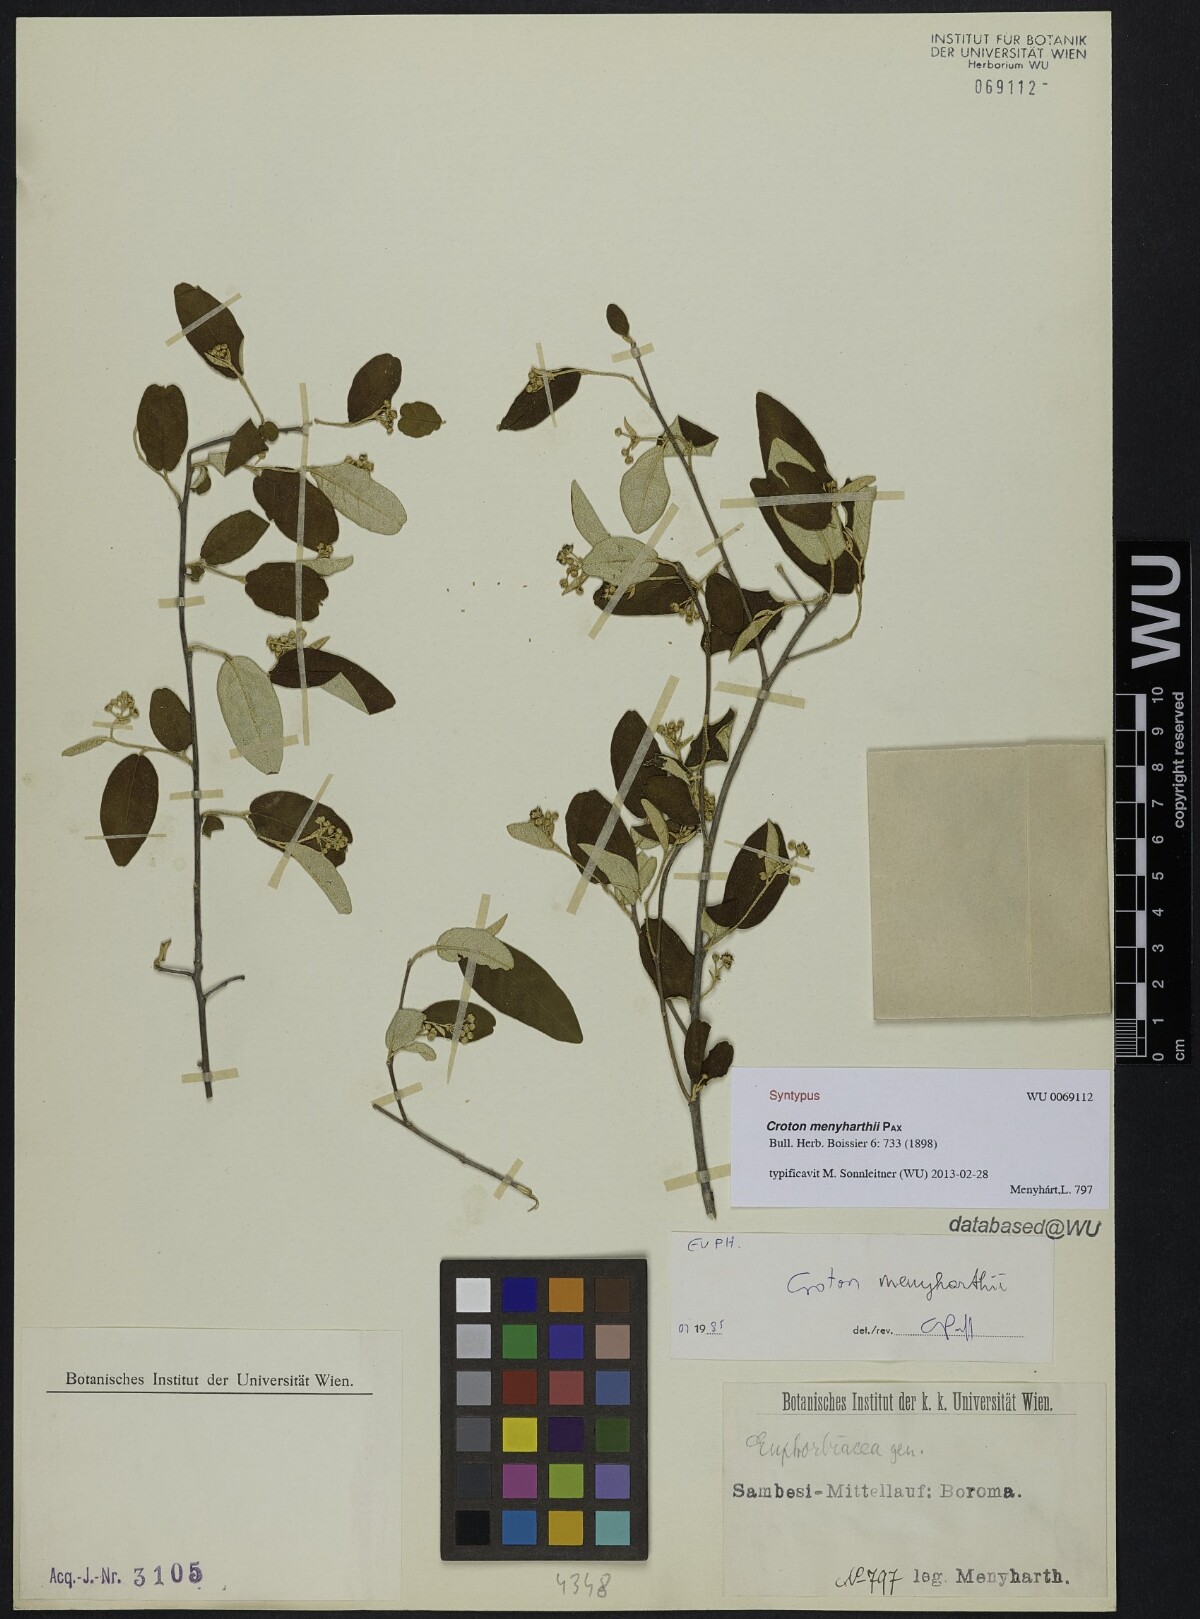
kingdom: Plantae
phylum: Tracheophyta
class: Magnoliopsida
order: Malpighiales
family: Euphorbiaceae
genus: Croton
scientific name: Croton menyharthii
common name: Rough-leaved croton
